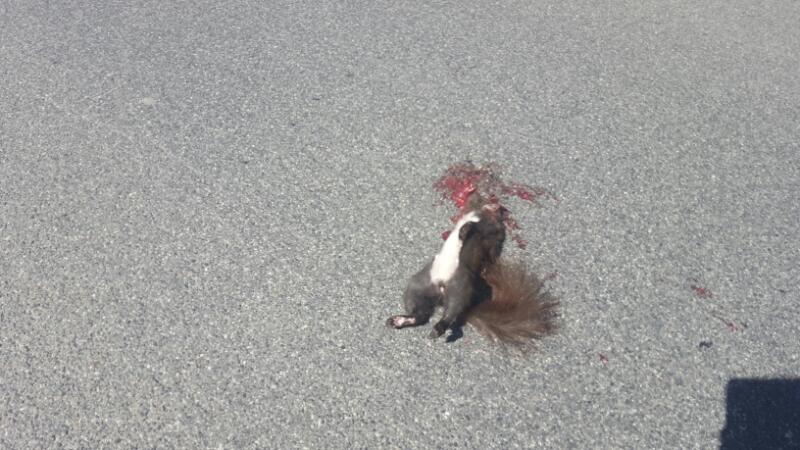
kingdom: Animalia
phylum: Chordata
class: Mammalia
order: Rodentia
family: Sciuridae
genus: Sciurus
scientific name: Sciurus vulgaris
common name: Eurasian red squirrel
